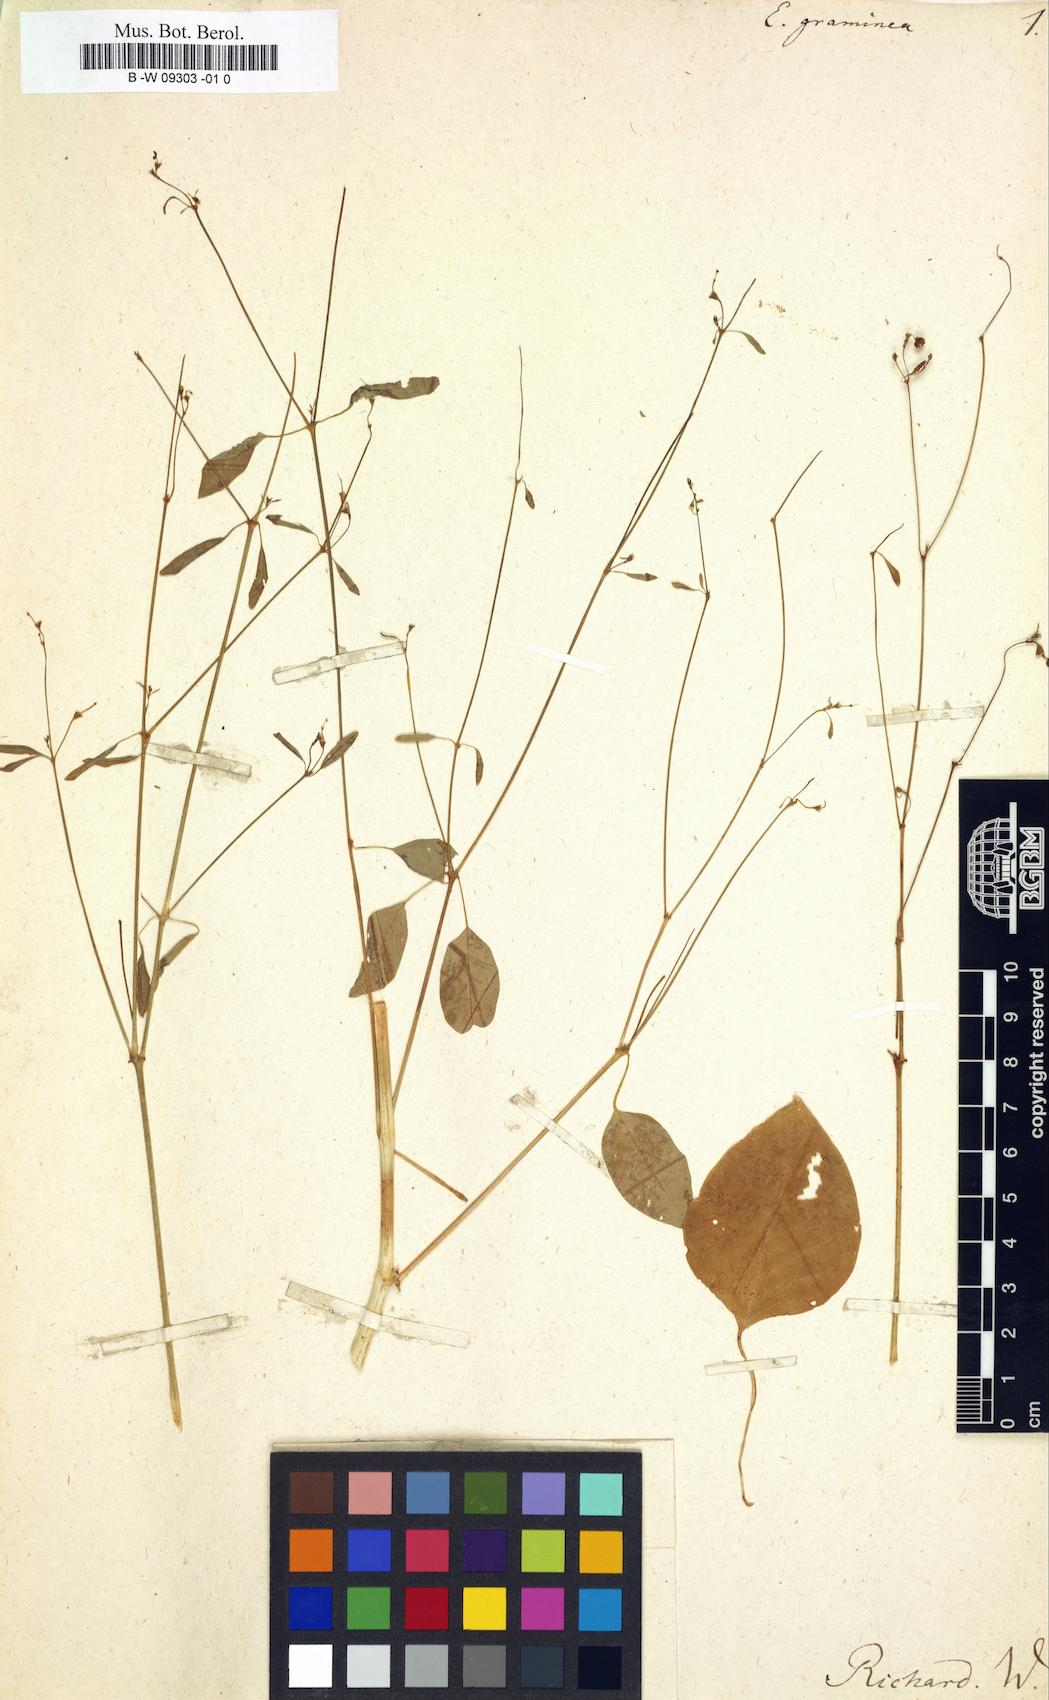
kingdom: Plantae
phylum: Tracheophyta
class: Magnoliopsida
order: Malpighiales
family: Euphorbiaceae
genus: Euphorbia
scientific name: Euphorbia graminea
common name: Grassleaf spurge
